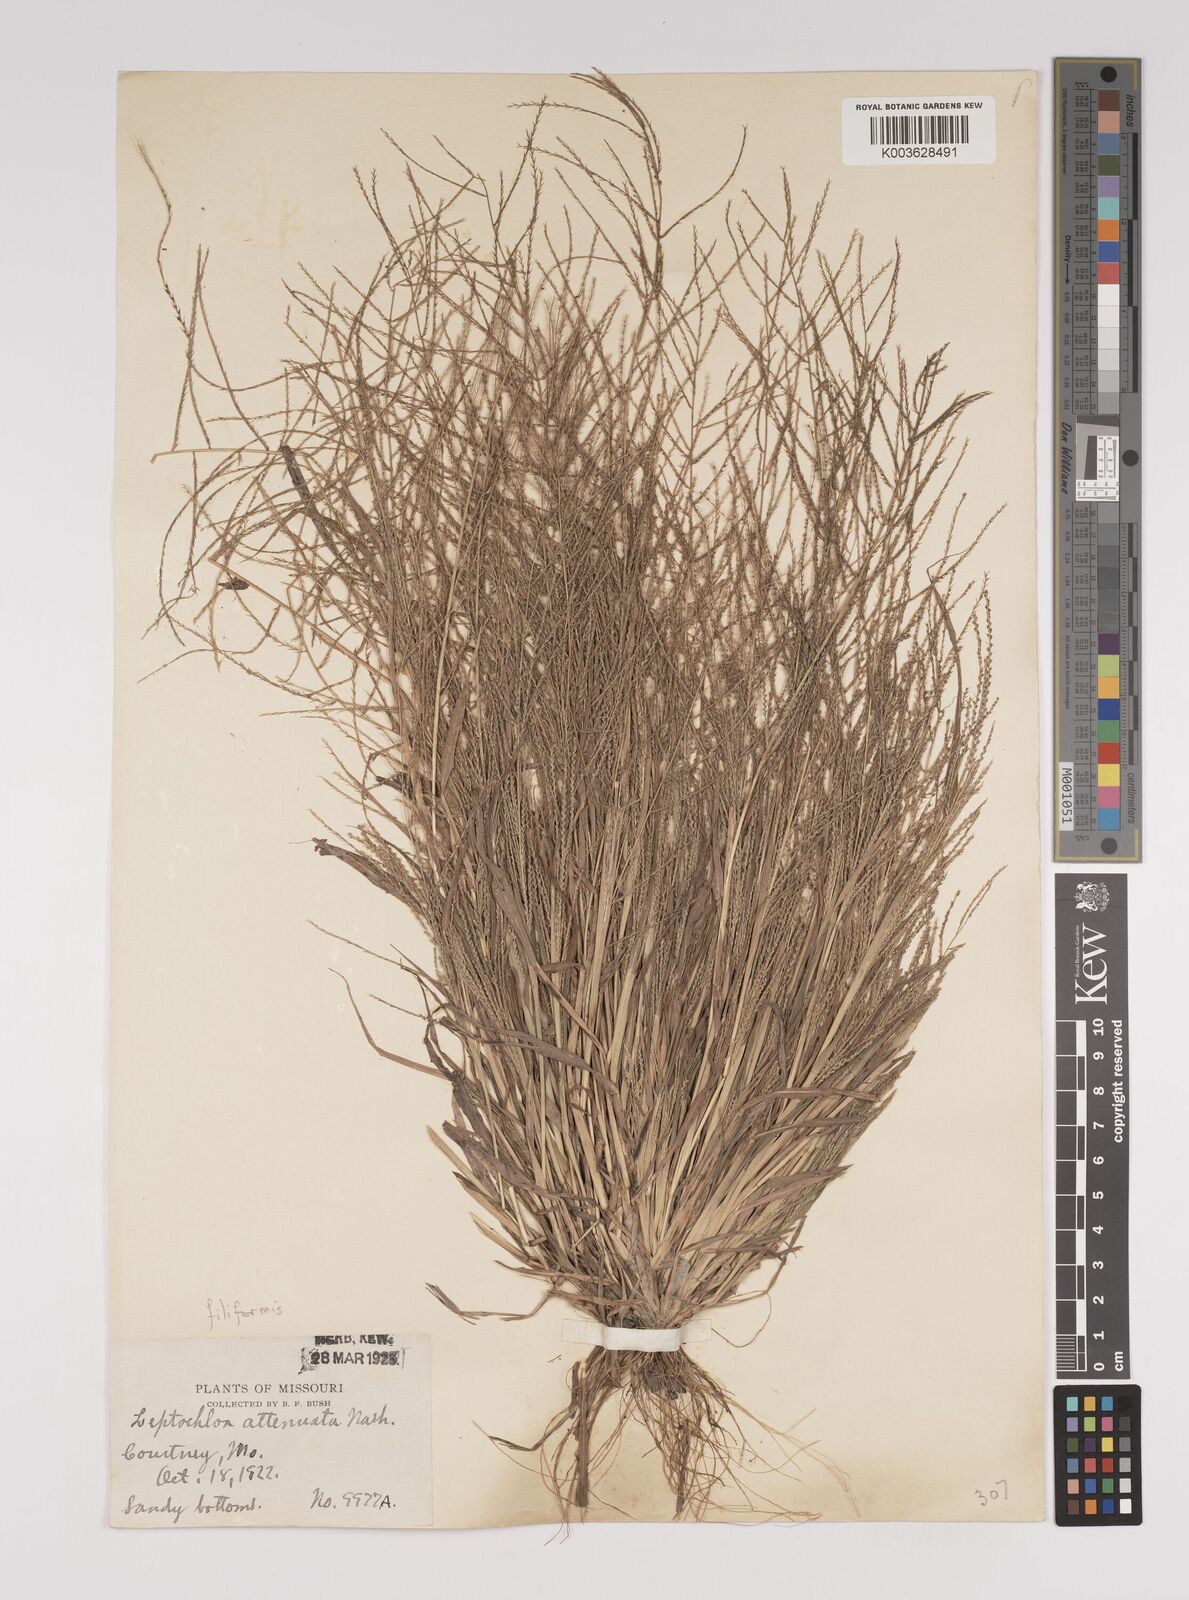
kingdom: Plantae
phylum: Tracheophyta
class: Liliopsida
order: Poales
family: Poaceae
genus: Leptochloa
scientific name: Leptochloa panicea
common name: Mucronate sprangletop
